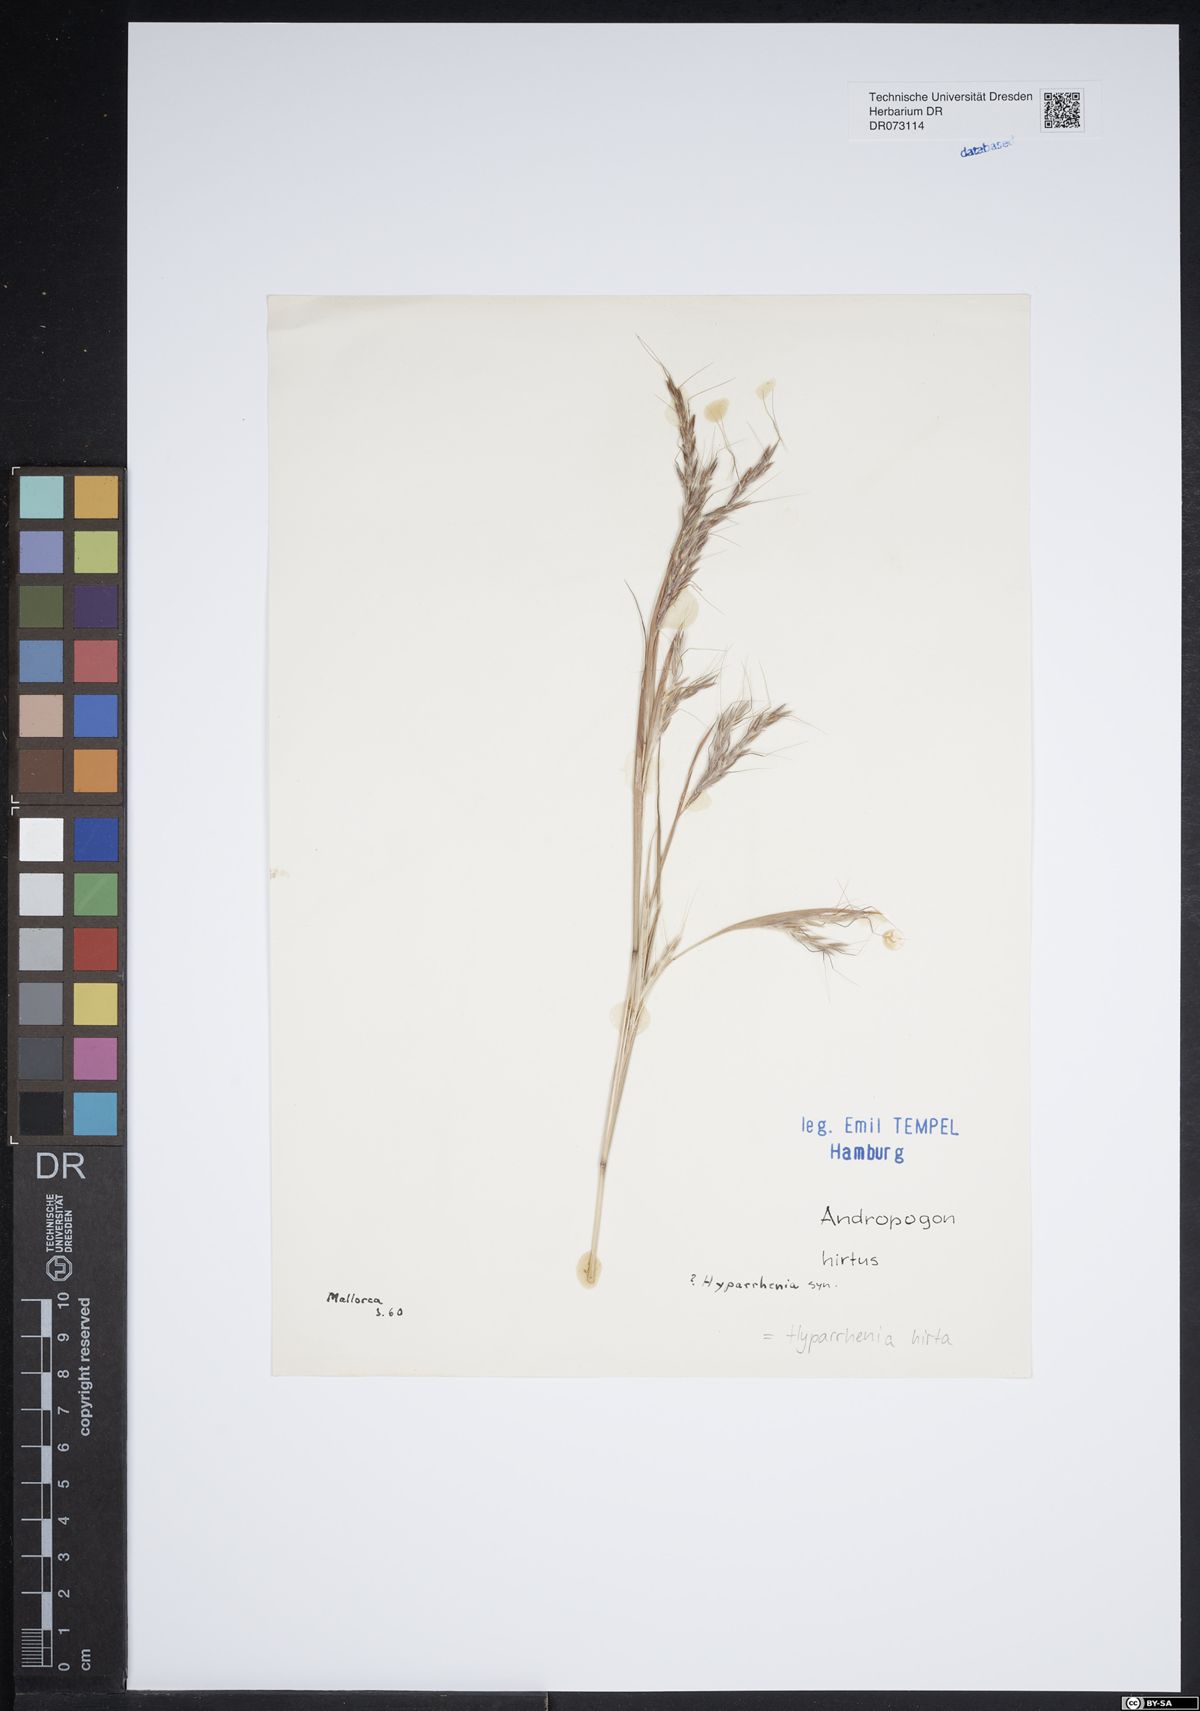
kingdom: Plantae
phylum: Tracheophyta
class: Liliopsida
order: Poales
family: Poaceae
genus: Hyparrhenia
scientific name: Hyparrhenia hirta
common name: Thatching grass
